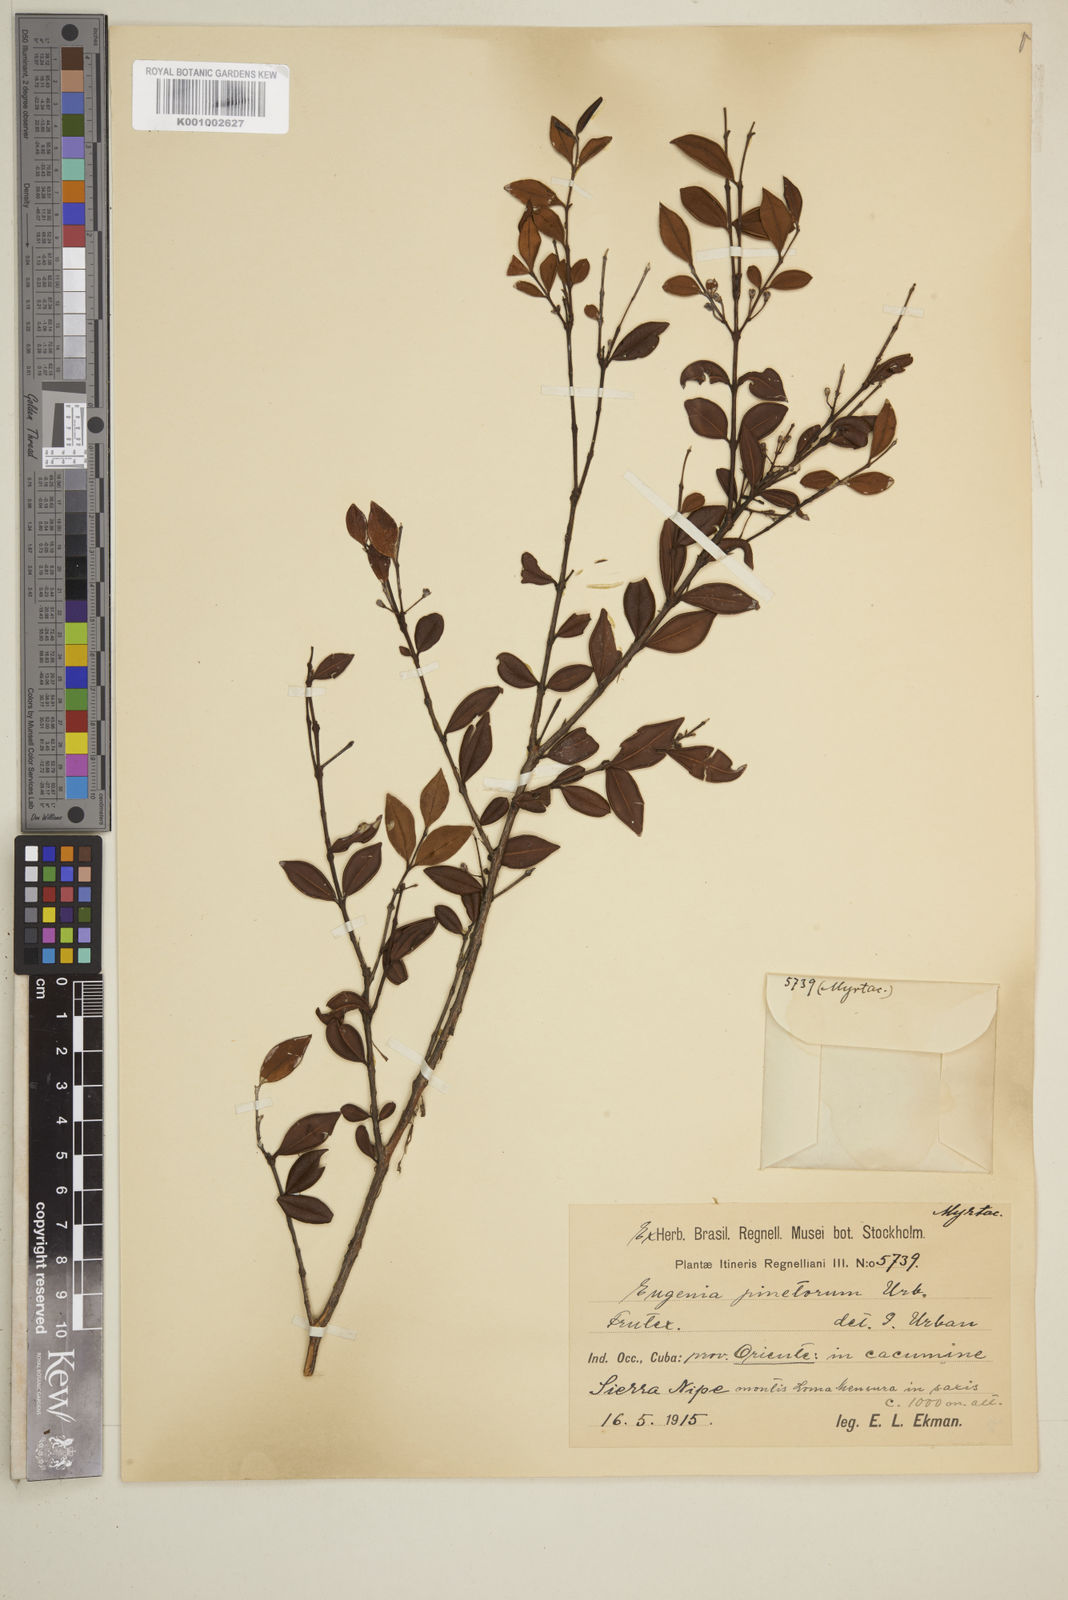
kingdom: Plantae
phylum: Tracheophyta
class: Magnoliopsida
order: Myrtales
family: Myrtaceae
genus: Eugenia
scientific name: Eugenia pinetorum
